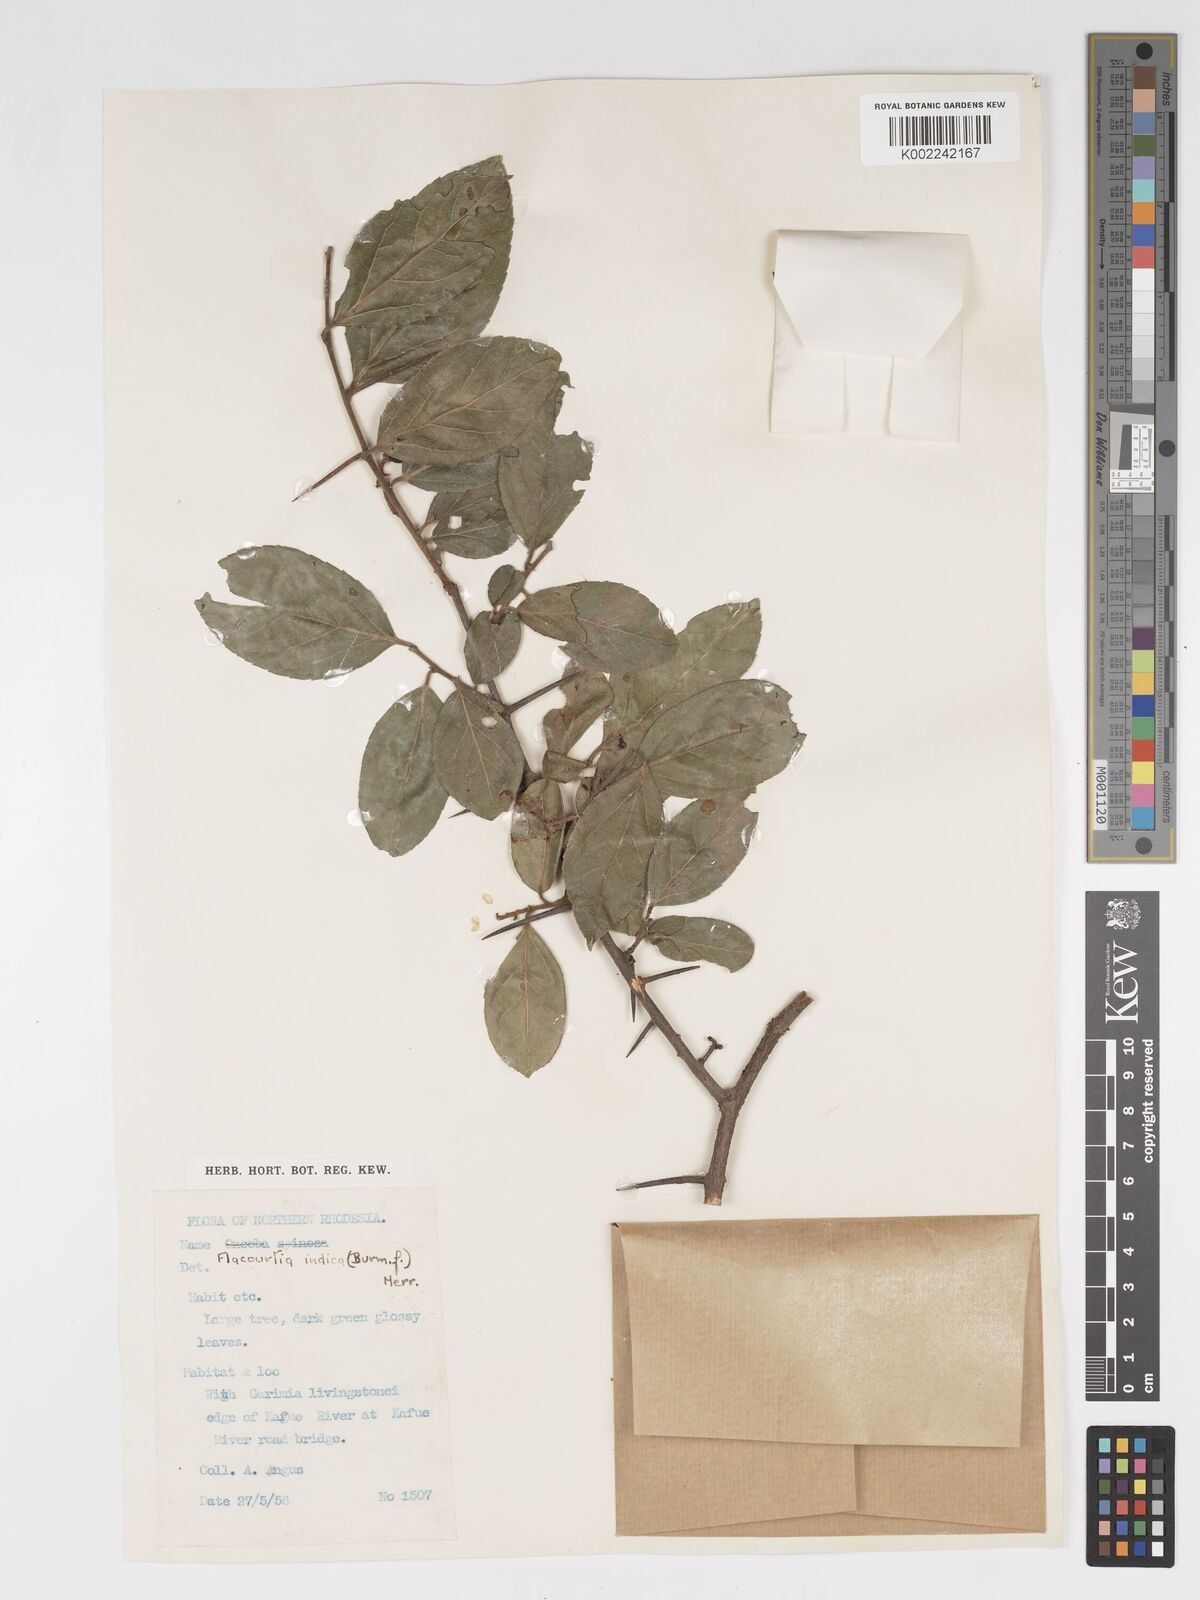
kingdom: Plantae
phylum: Tracheophyta
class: Magnoliopsida
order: Malpighiales
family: Salicaceae
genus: Flacourtia
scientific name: Flacourtia indica
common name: Governor's plum
